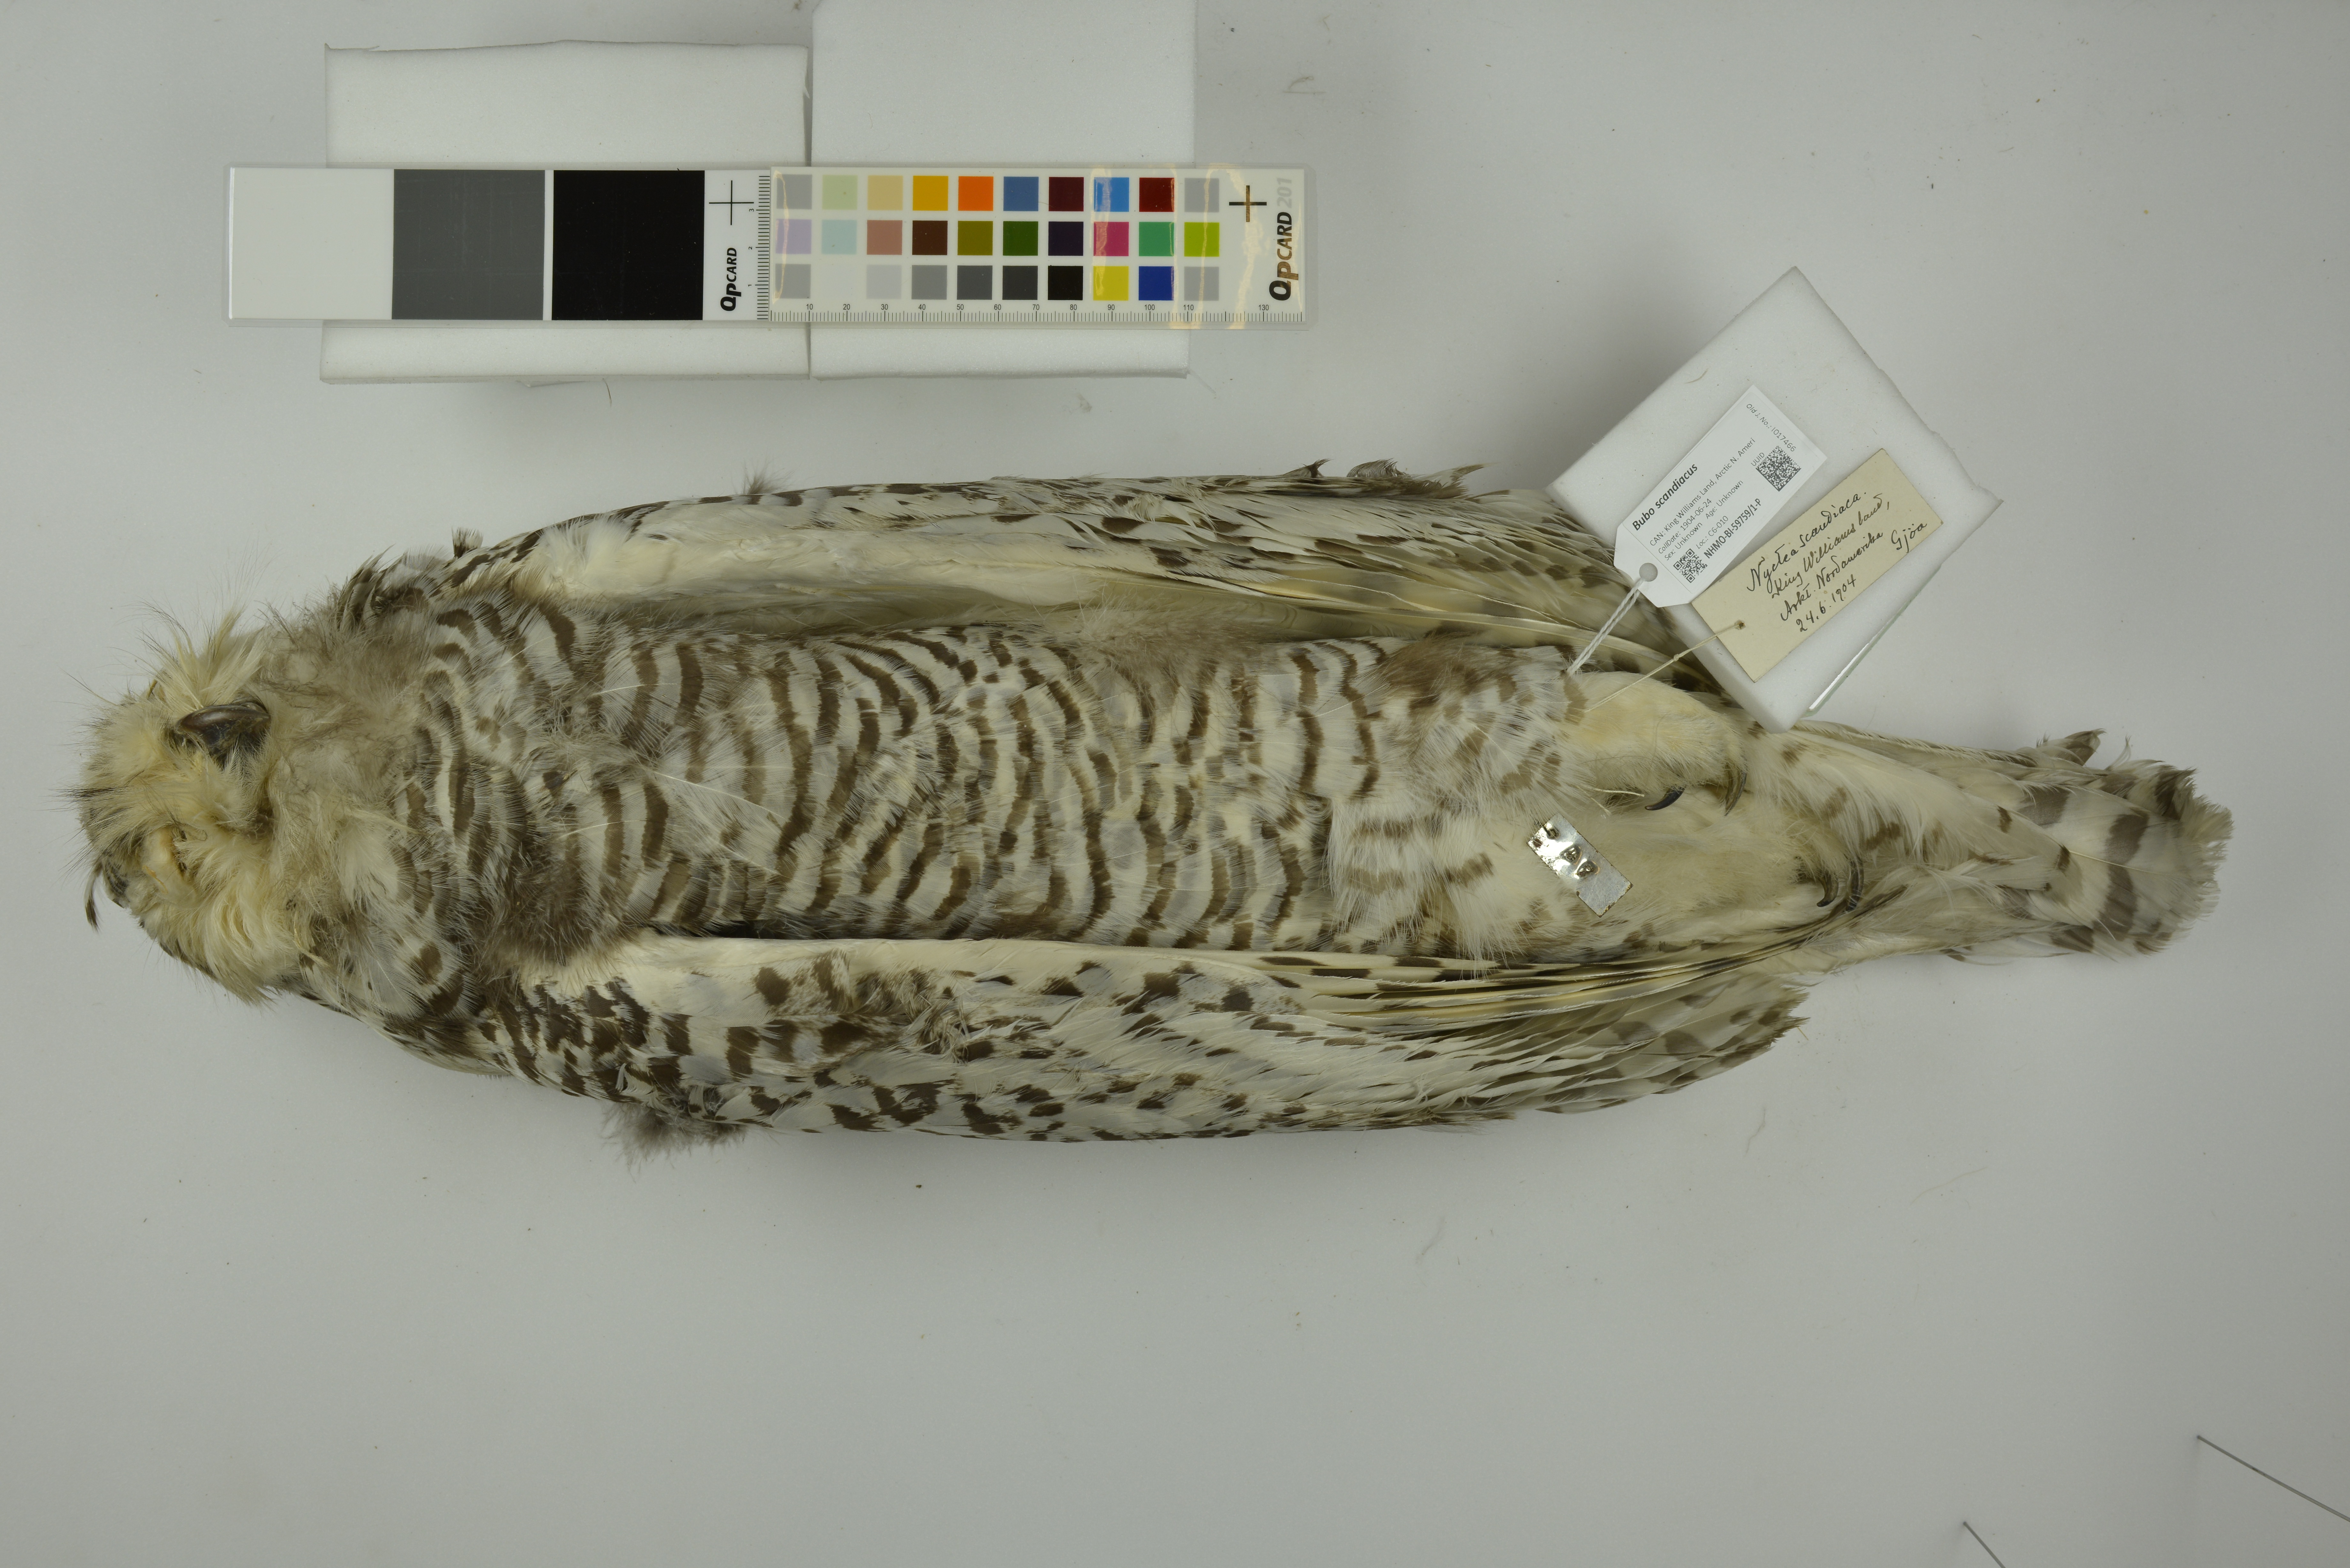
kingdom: Animalia
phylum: Chordata
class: Aves
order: Strigiformes
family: Strigidae
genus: Bubo
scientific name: Bubo scandiacus
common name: Snowy owl
